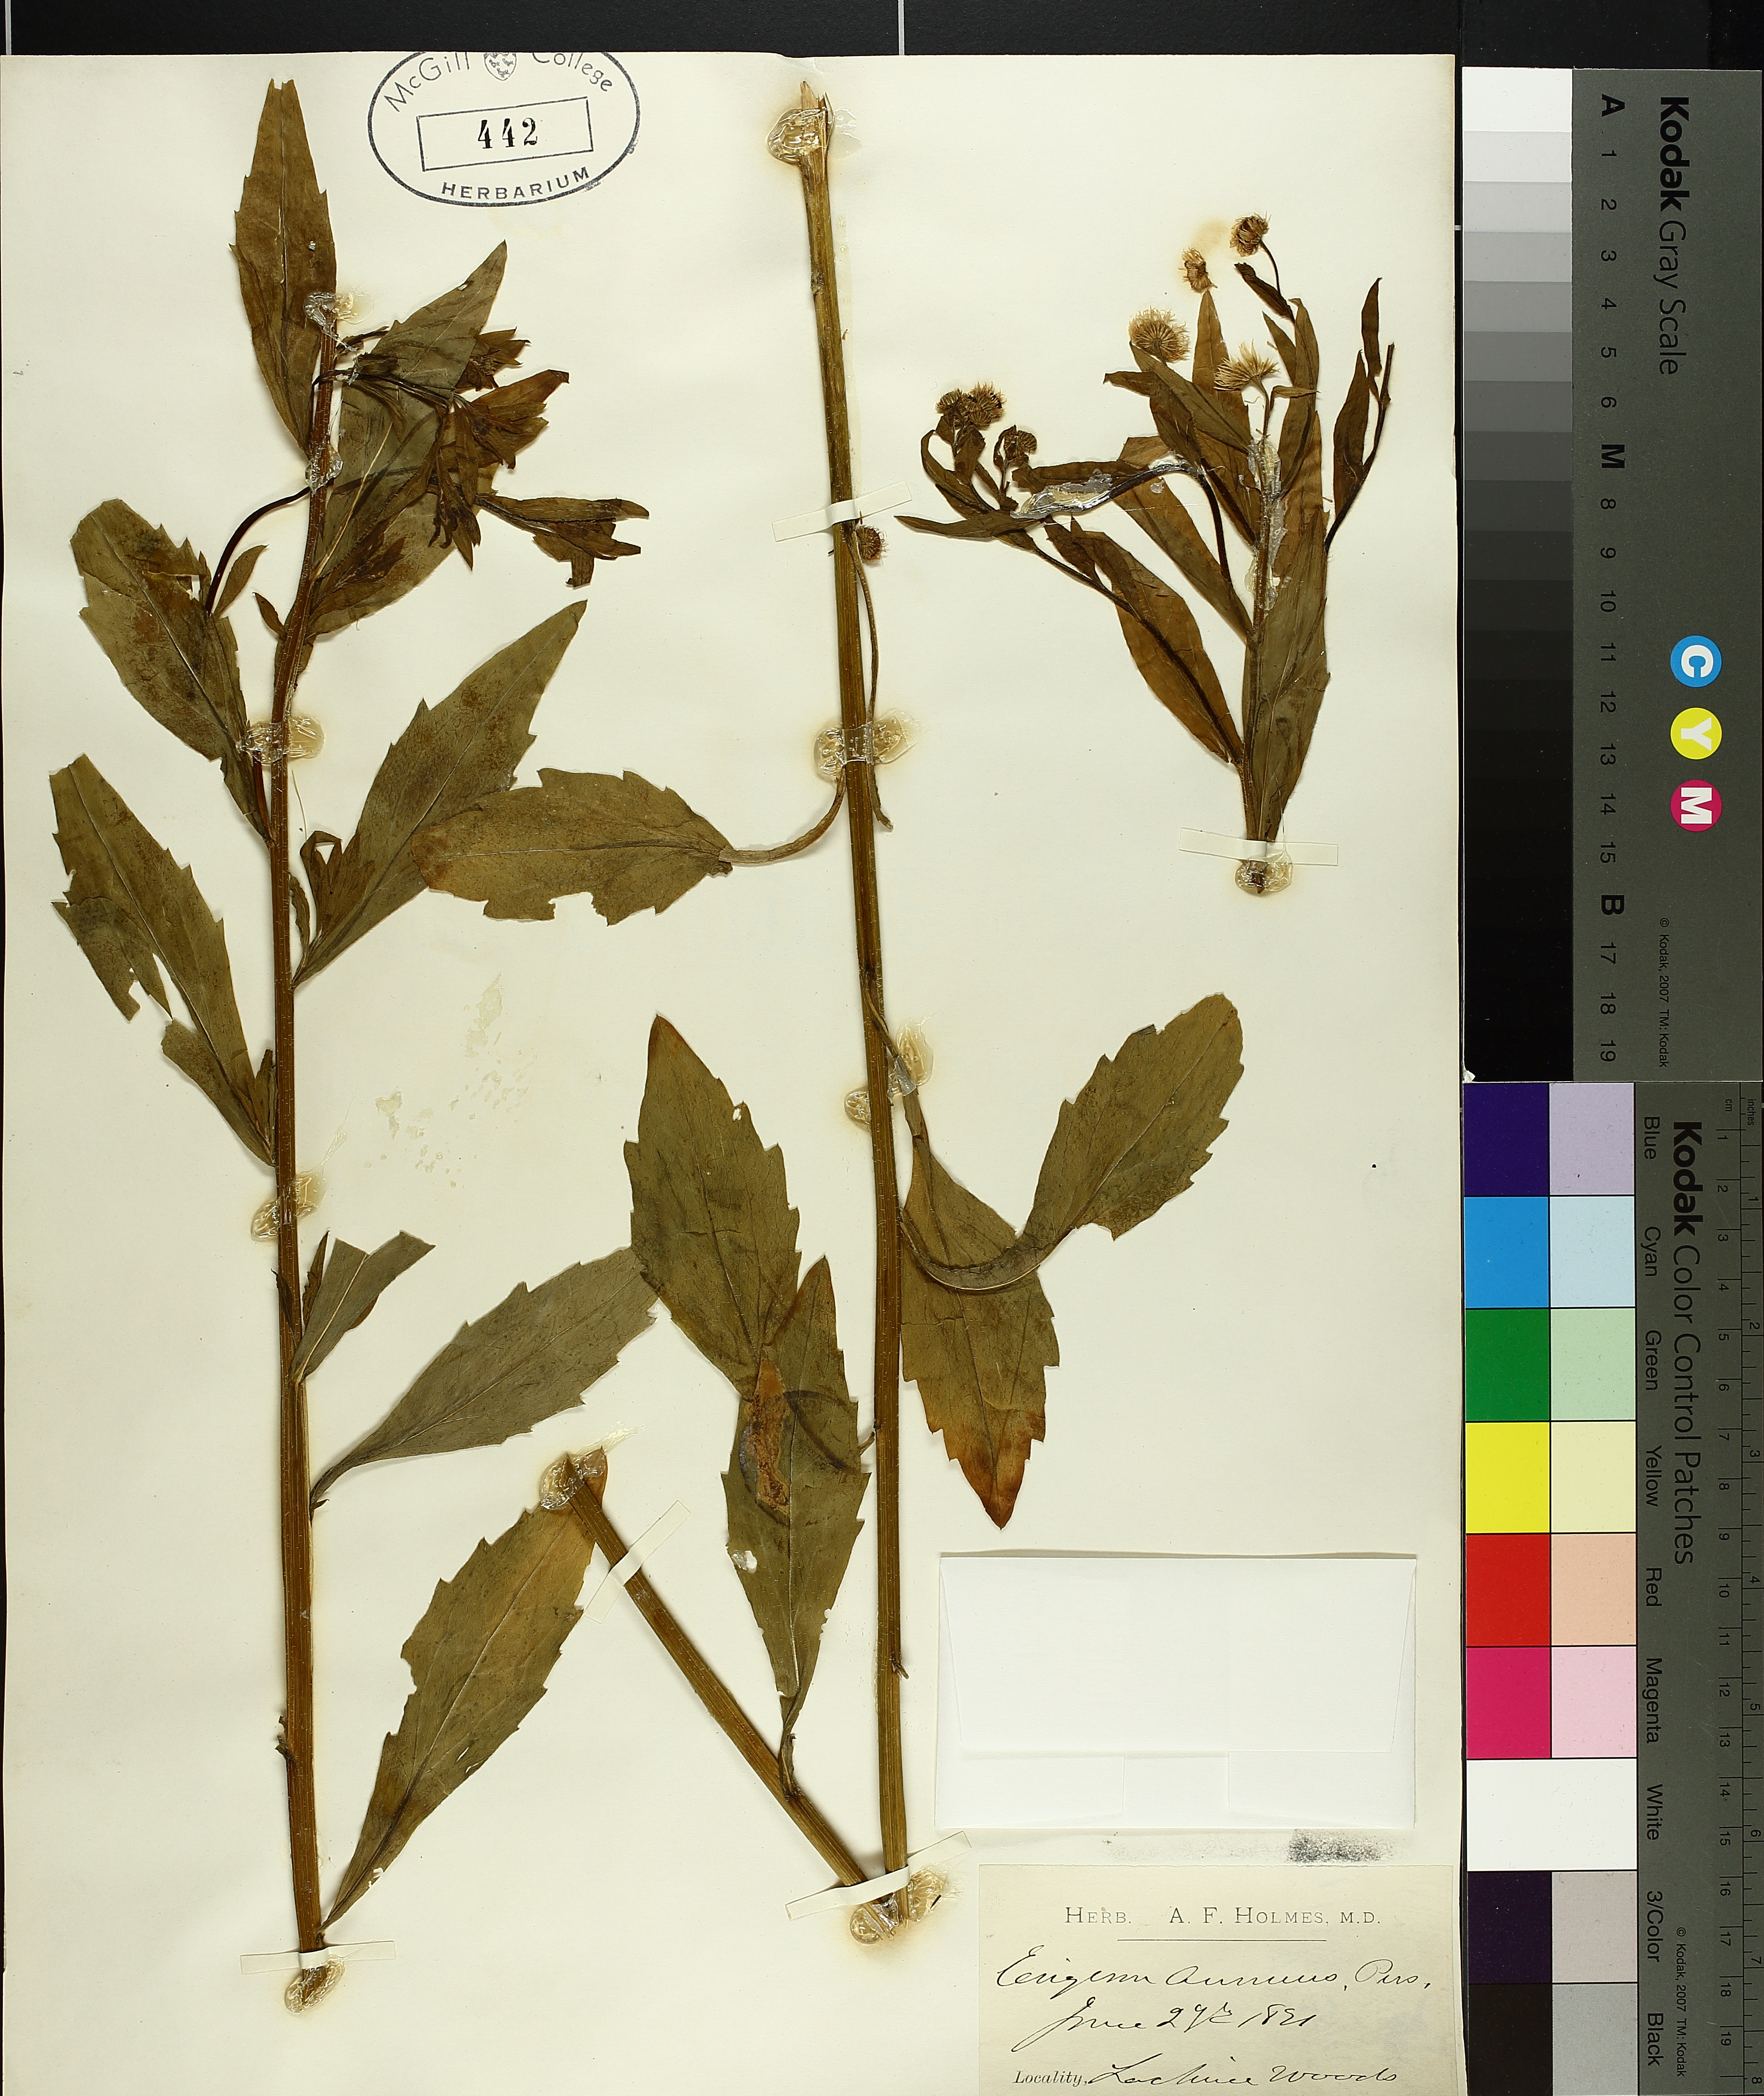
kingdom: Plantae
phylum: Tracheophyta
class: Magnoliopsida
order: Asterales
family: Asteraceae
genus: Erigeron
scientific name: Erigeron annuus
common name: Tall fleabane
